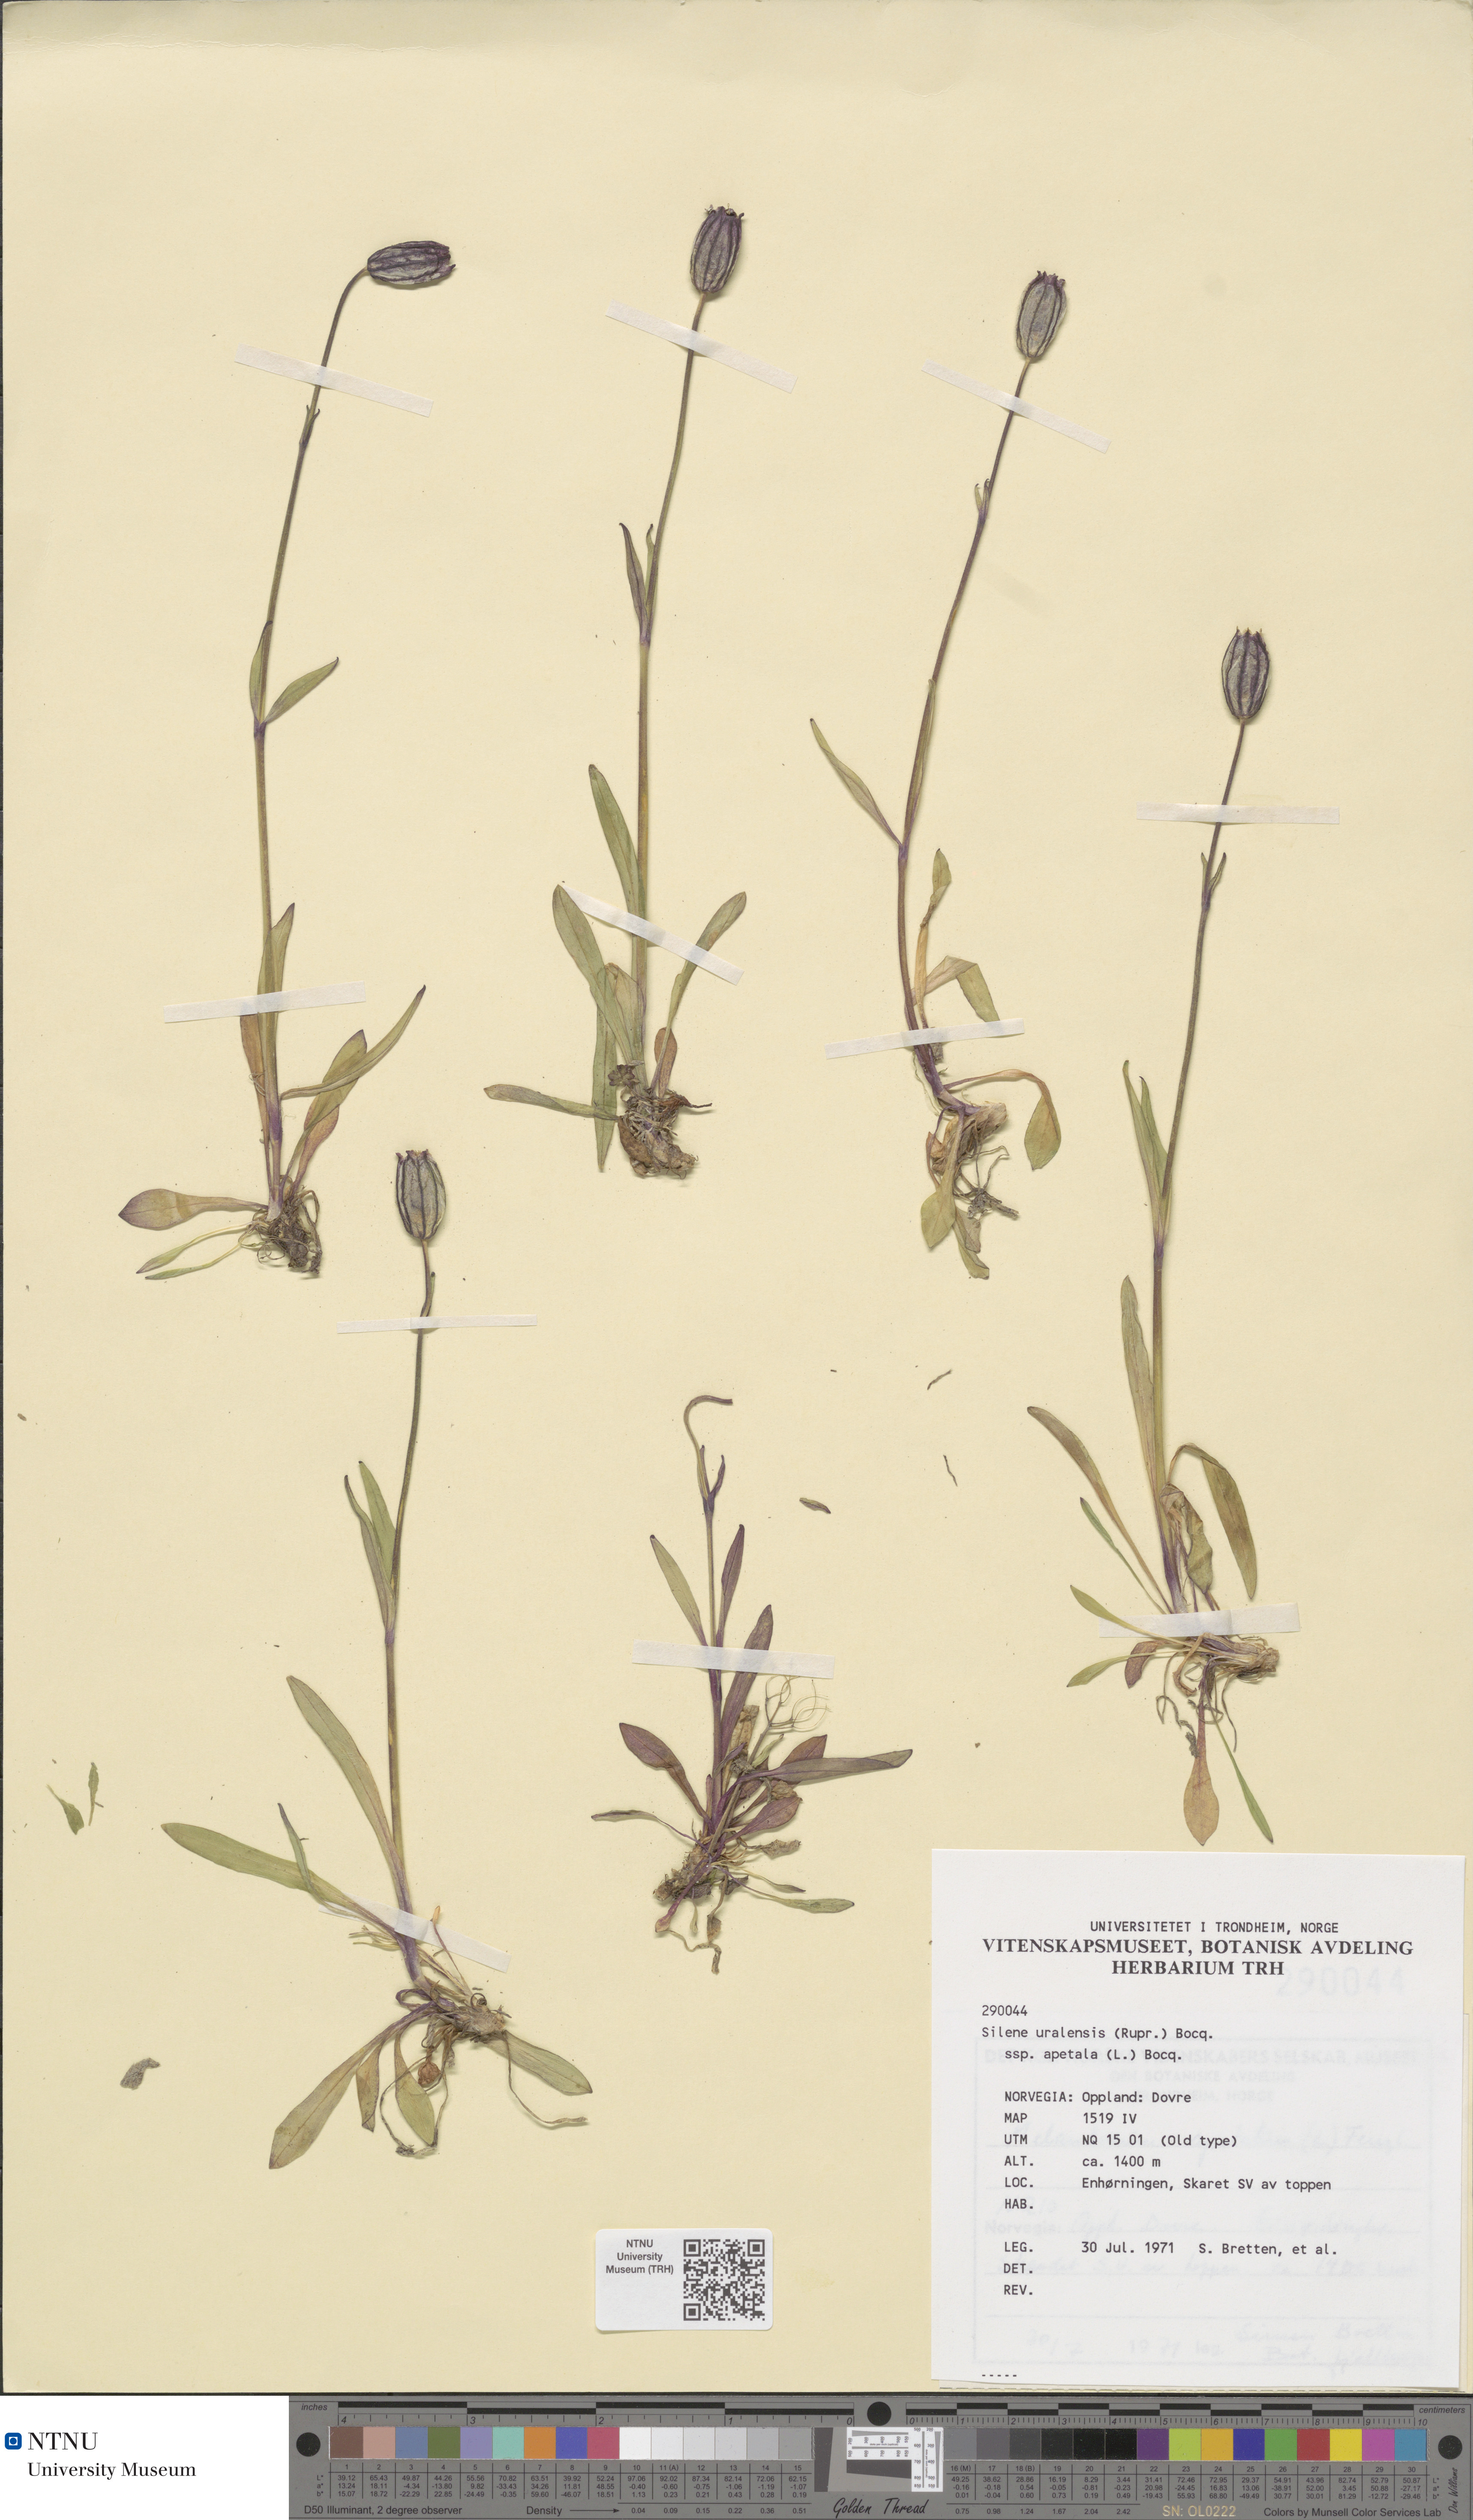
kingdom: Plantae
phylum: Tracheophyta
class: Magnoliopsida
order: Caryophyllales
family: Caryophyllaceae
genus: Silene
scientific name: Silene wahlbergella
